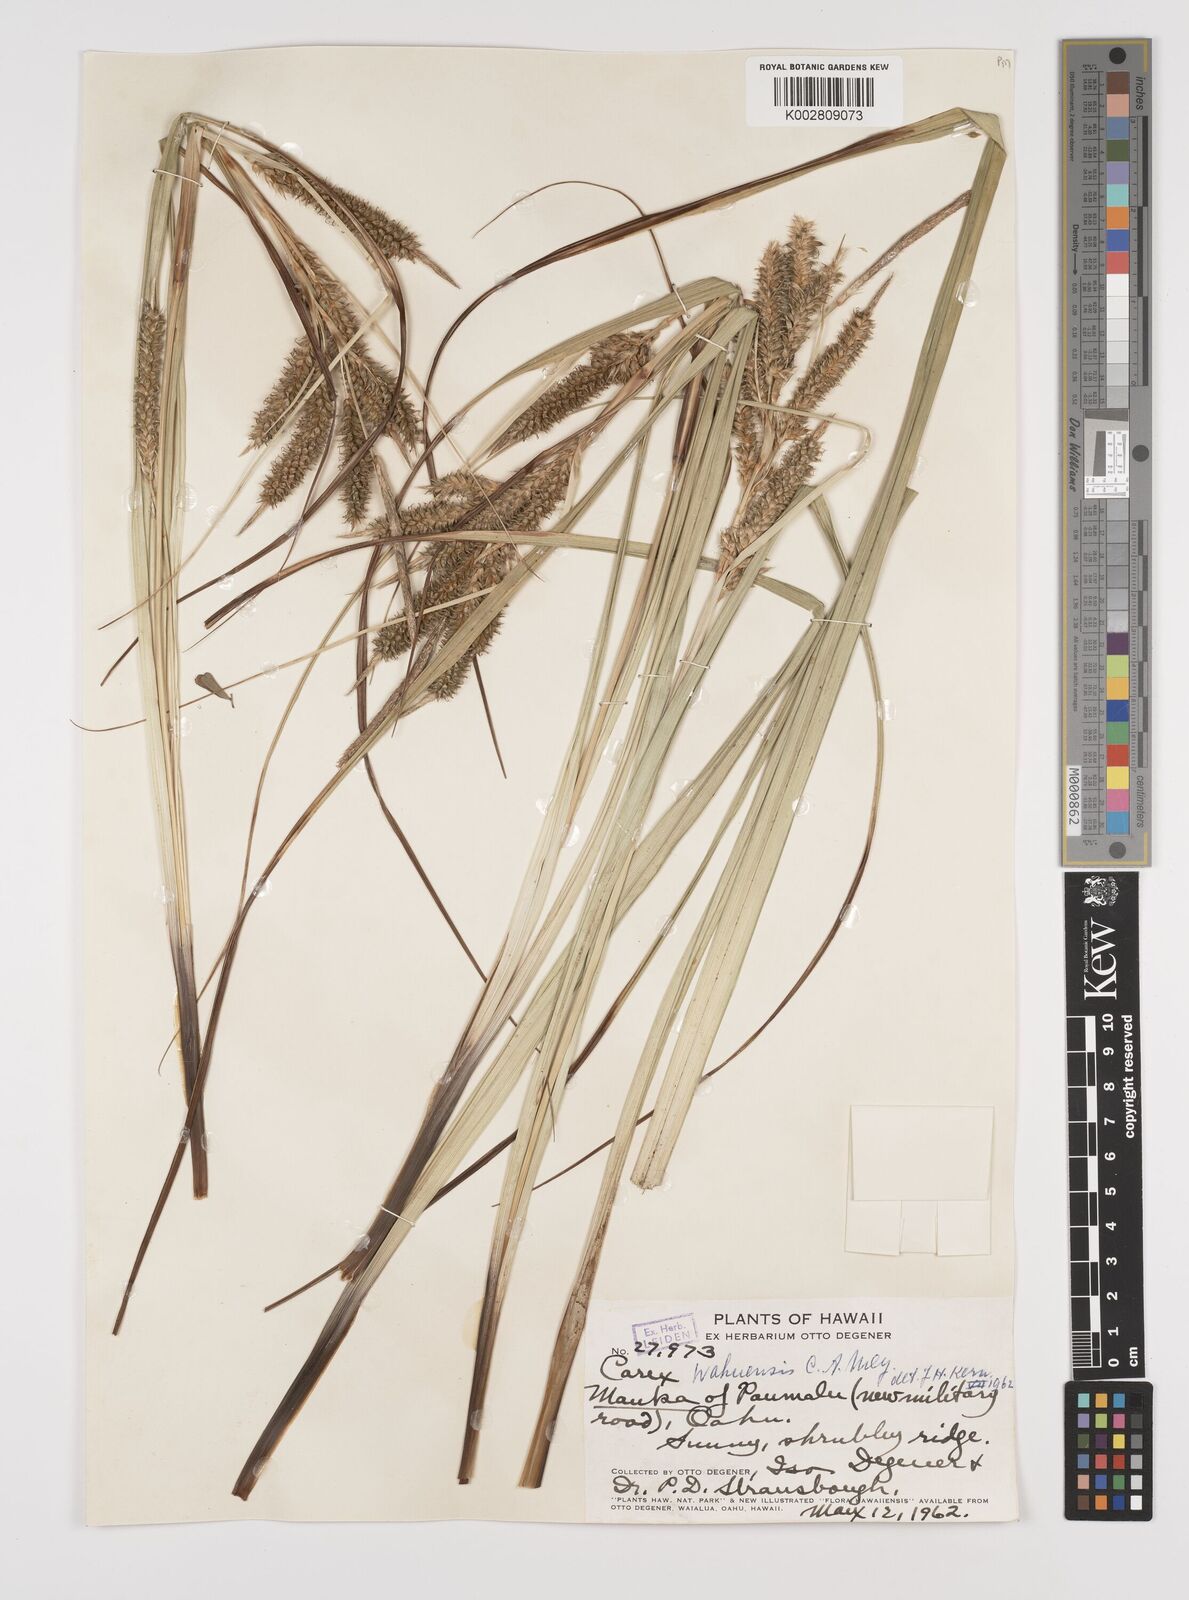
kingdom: Plantae
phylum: Tracheophyta
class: Liliopsida
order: Poales
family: Cyperaceae
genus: Carex
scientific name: Carex wahuensis
